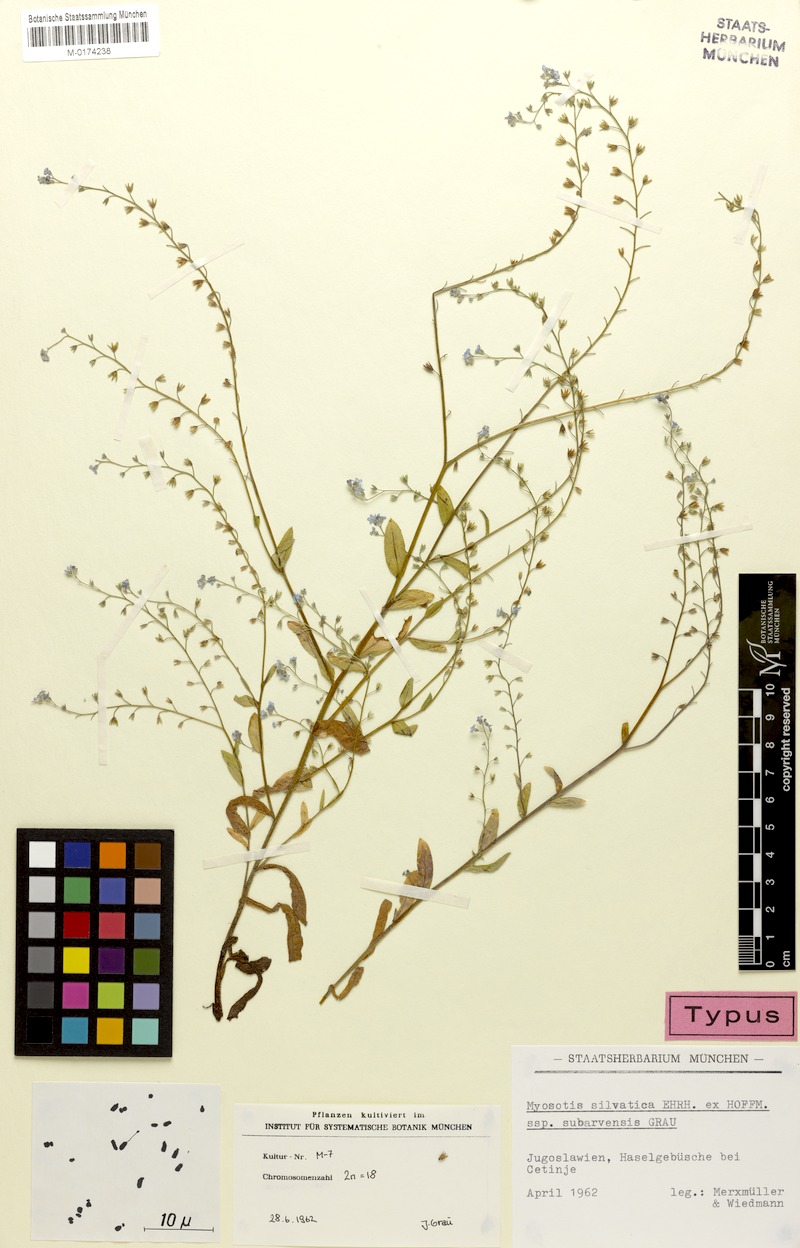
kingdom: Plantae
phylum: Tracheophyta
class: Magnoliopsida
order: Boraginales
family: Boraginaceae
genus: Myosotis
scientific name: Myosotis sylvatica
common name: Wood forget-me-not
